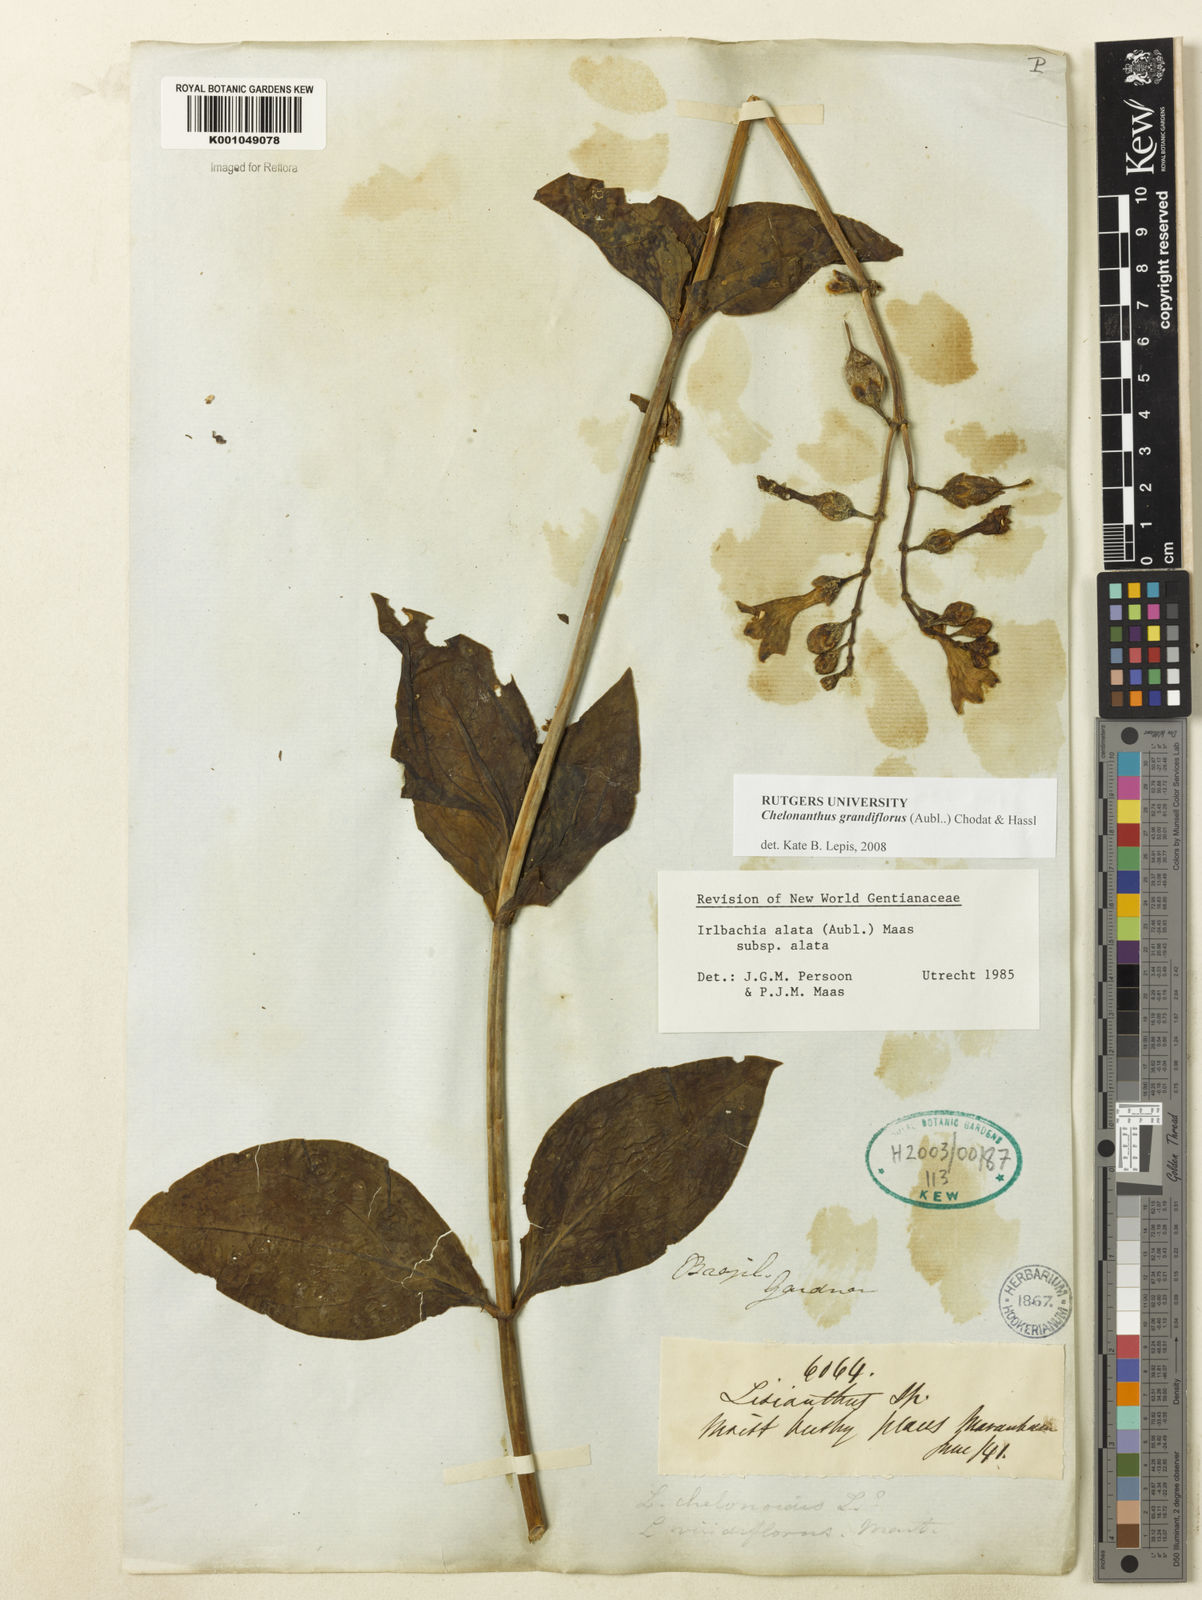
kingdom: Plantae
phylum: Tracheophyta
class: Magnoliopsida
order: Gentianales
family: Gentianaceae
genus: Chelonanthus
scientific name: Chelonanthus grandiflorus
